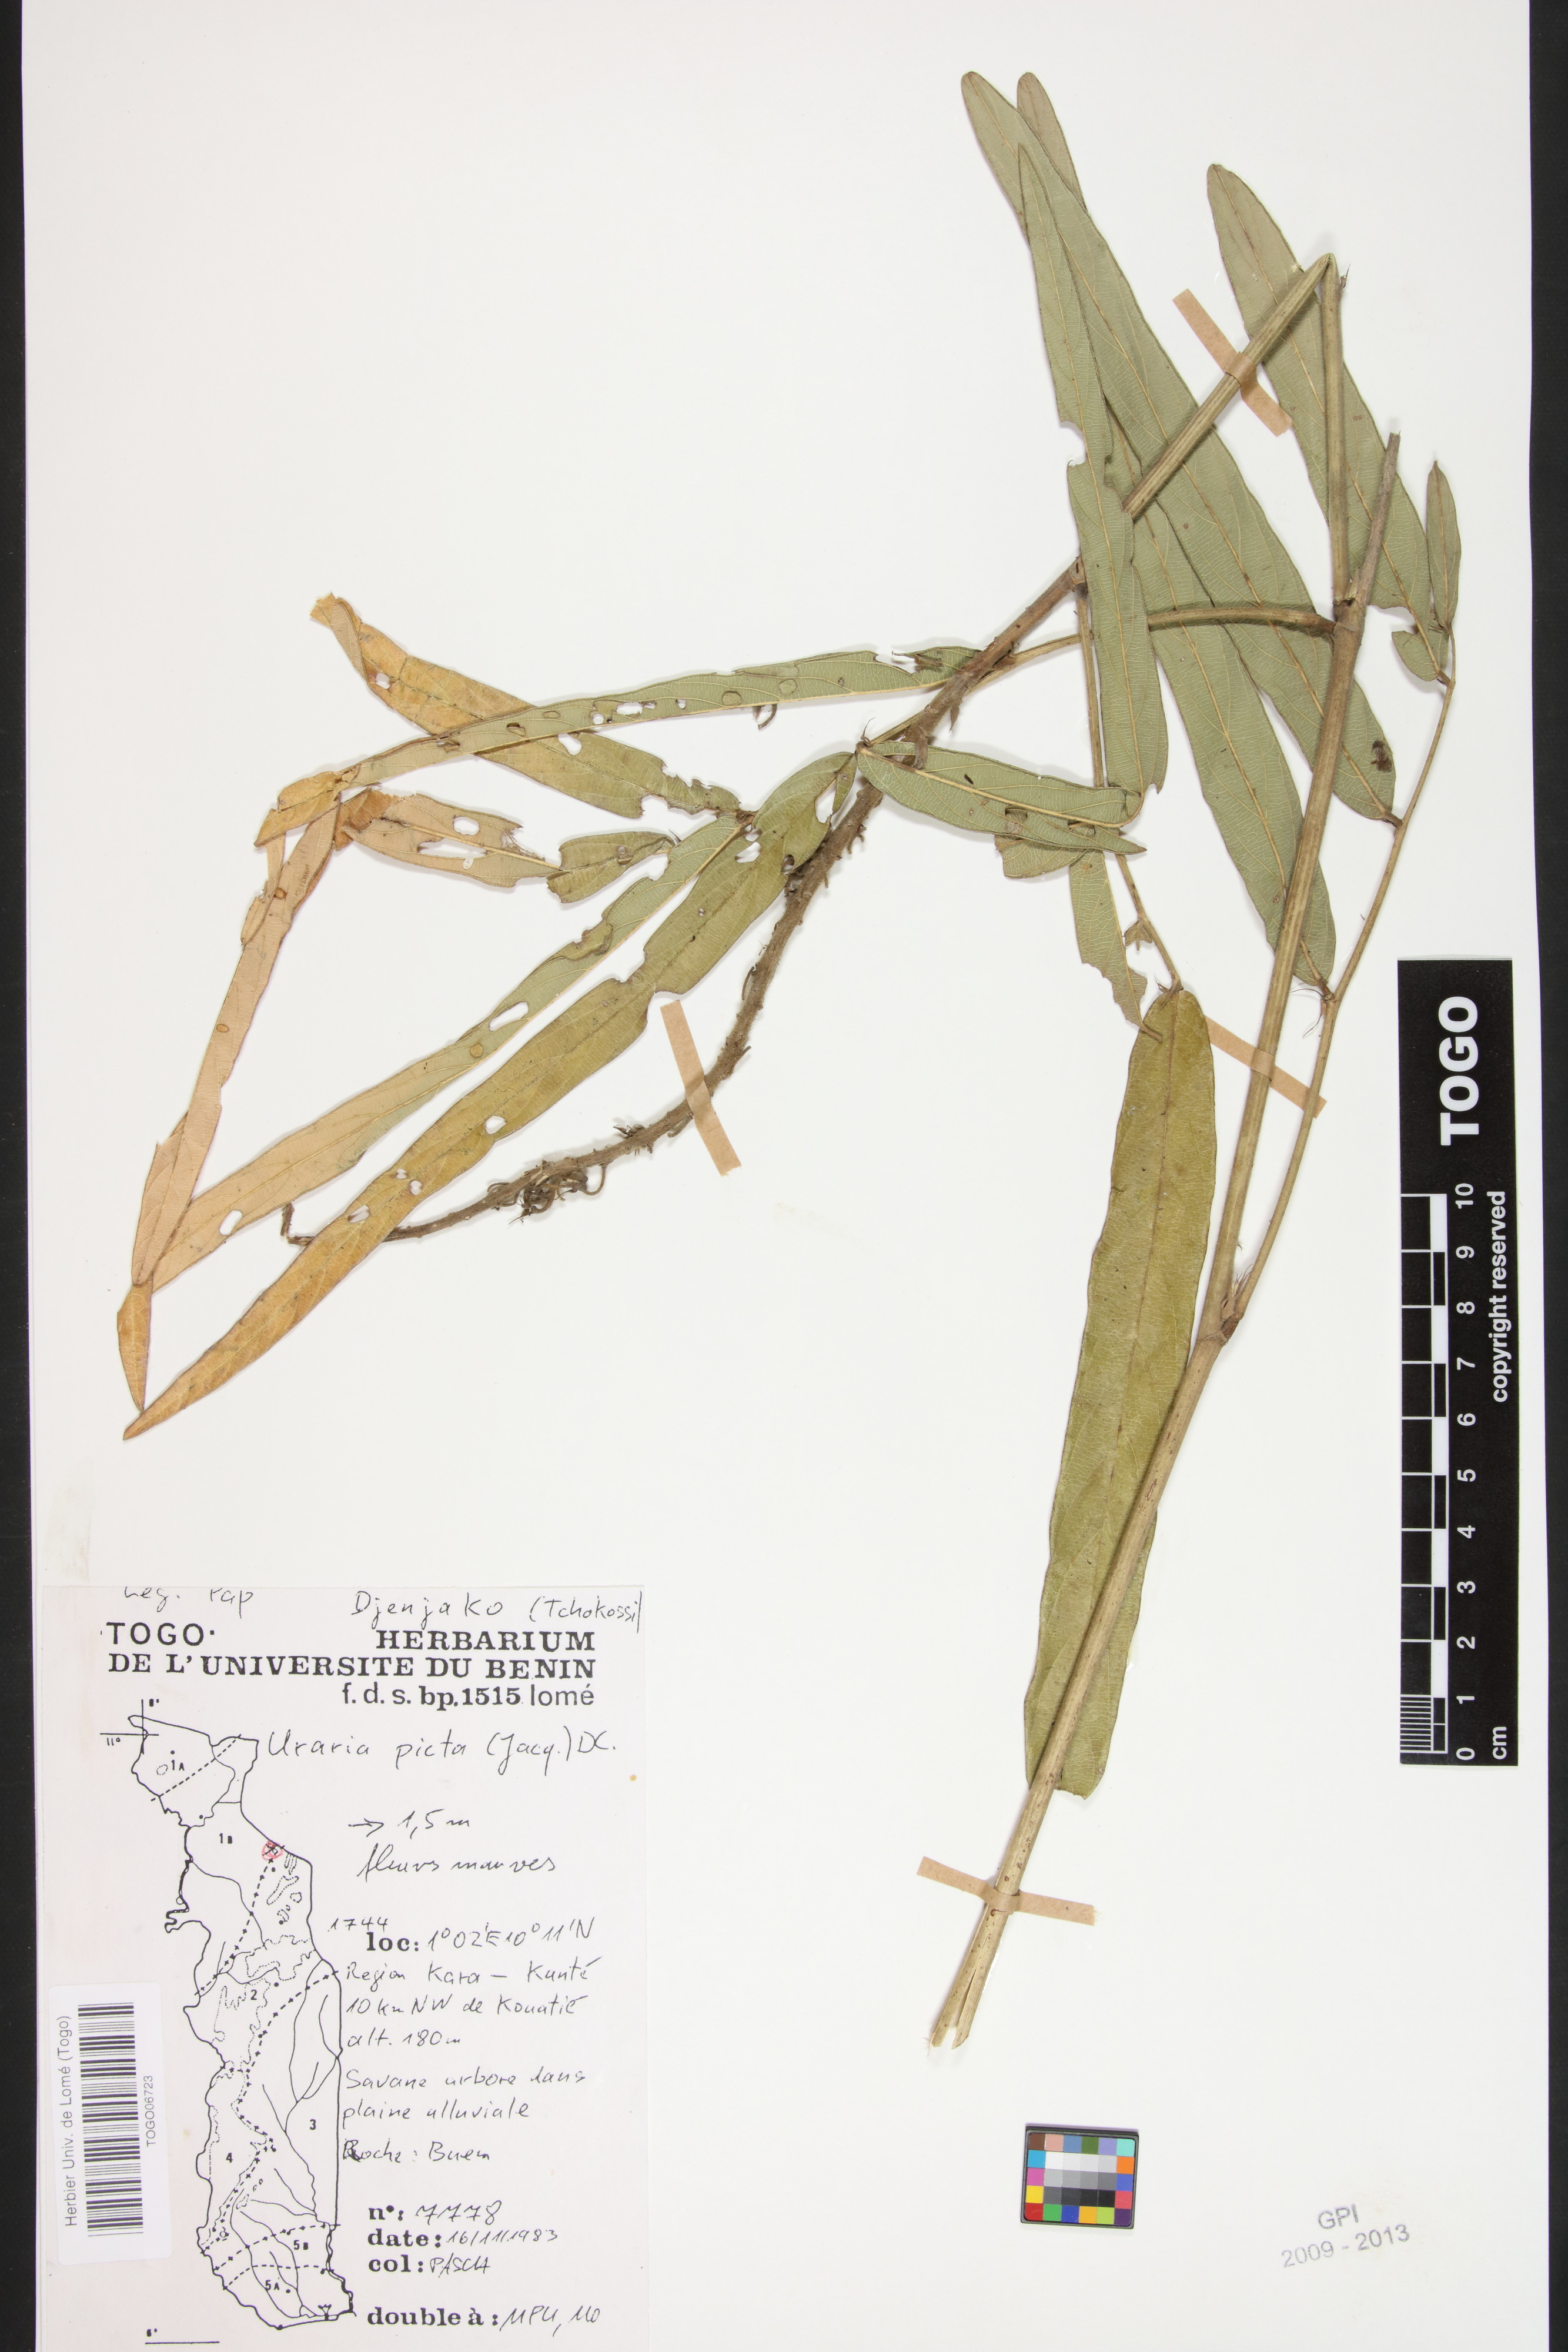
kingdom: Plantae
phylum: Tracheophyta
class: Magnoliopsida
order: Fabales
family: Fabaceae
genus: Uraria
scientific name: Uraria picta
